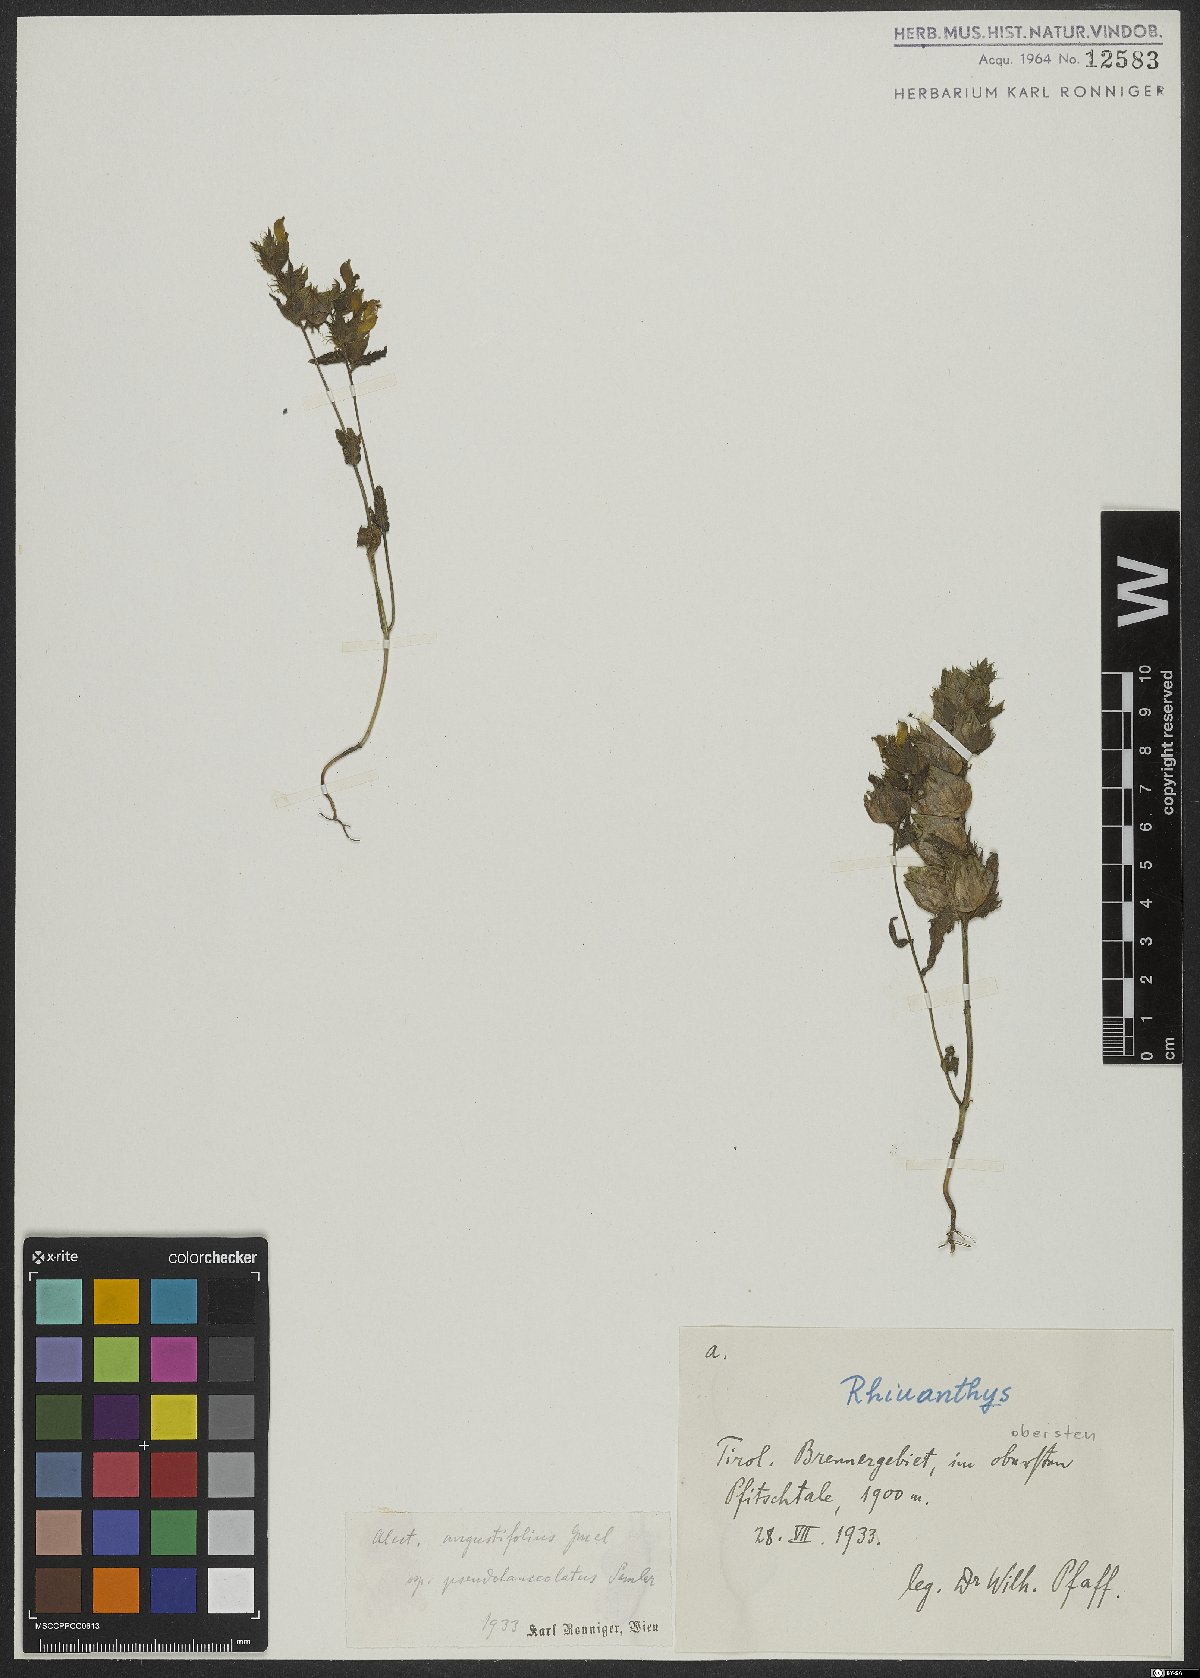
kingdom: Plantae
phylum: Tracheophyta
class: Magnoliopsida
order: Lamiales
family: Orobanchaceae
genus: Rhinanthus
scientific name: Rhinanthus glacialis
